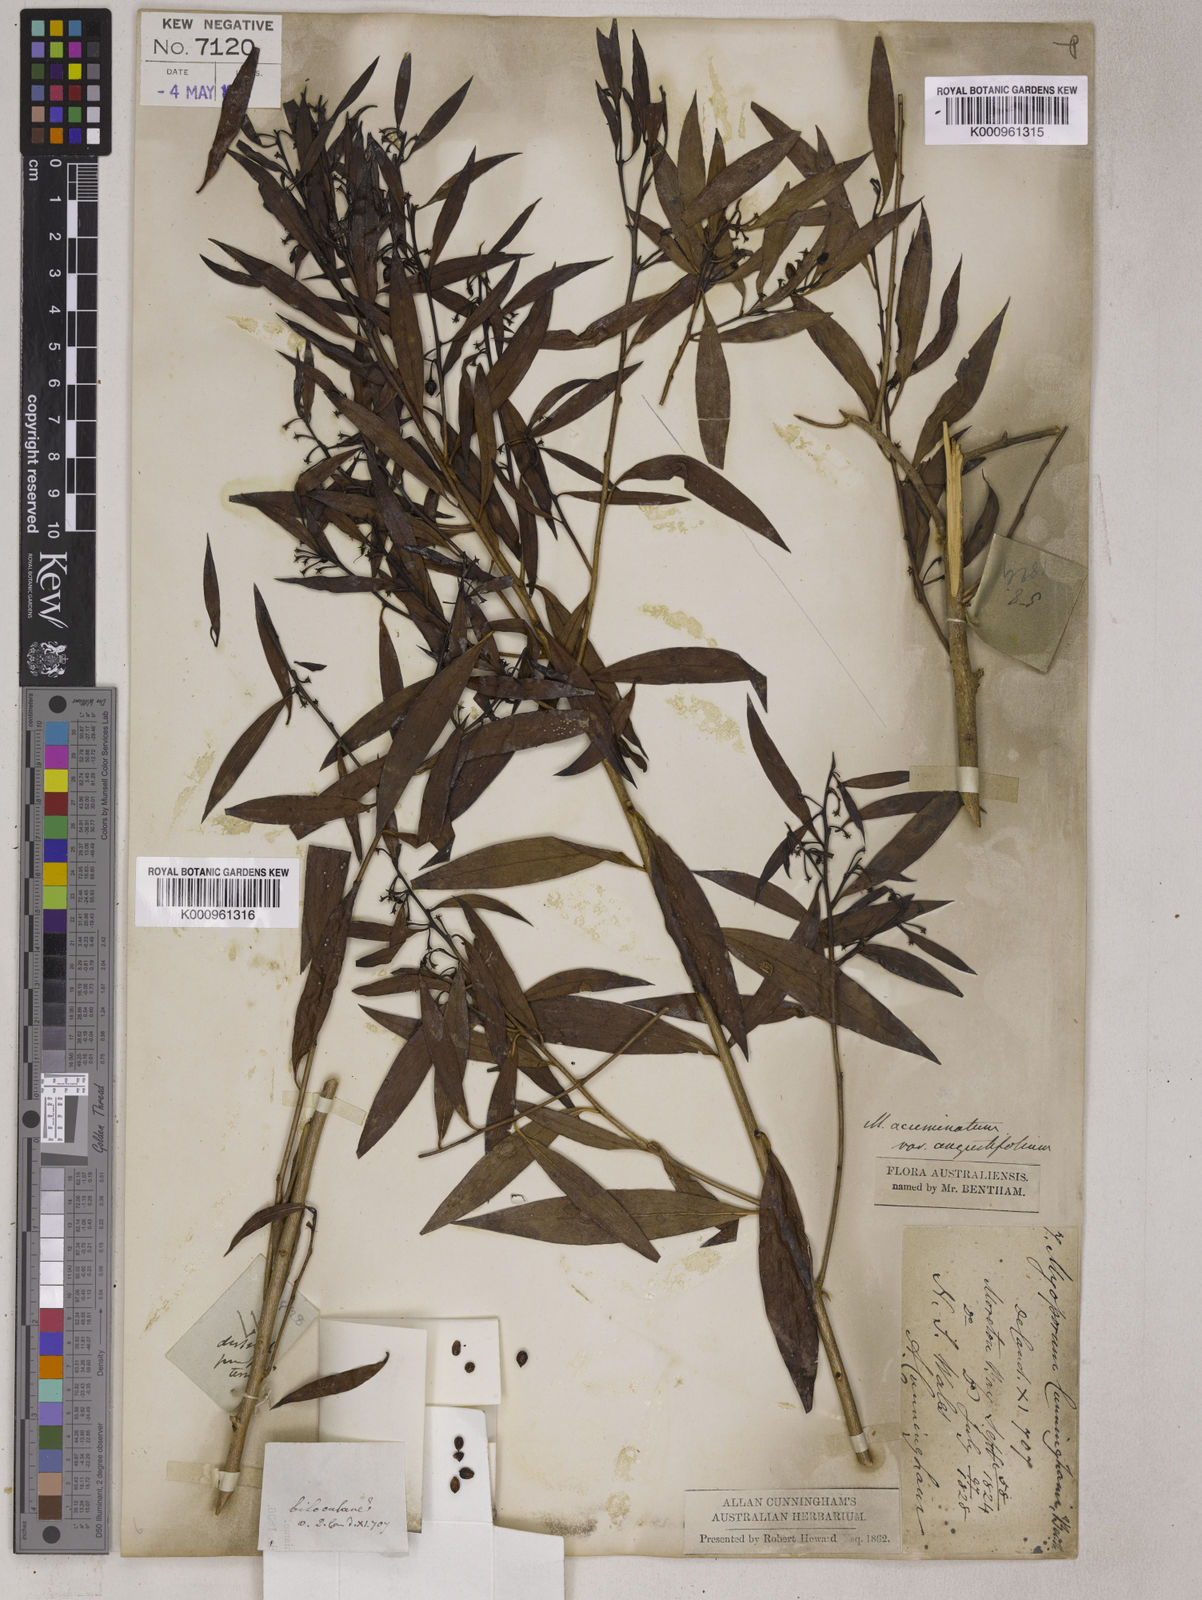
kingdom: Plantae
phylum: Tracheophyta
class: Magnoliopsida
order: Lamiales
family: Scrophulariaceae
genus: Myoporum
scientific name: Myoporum montanum
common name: Waterbush
